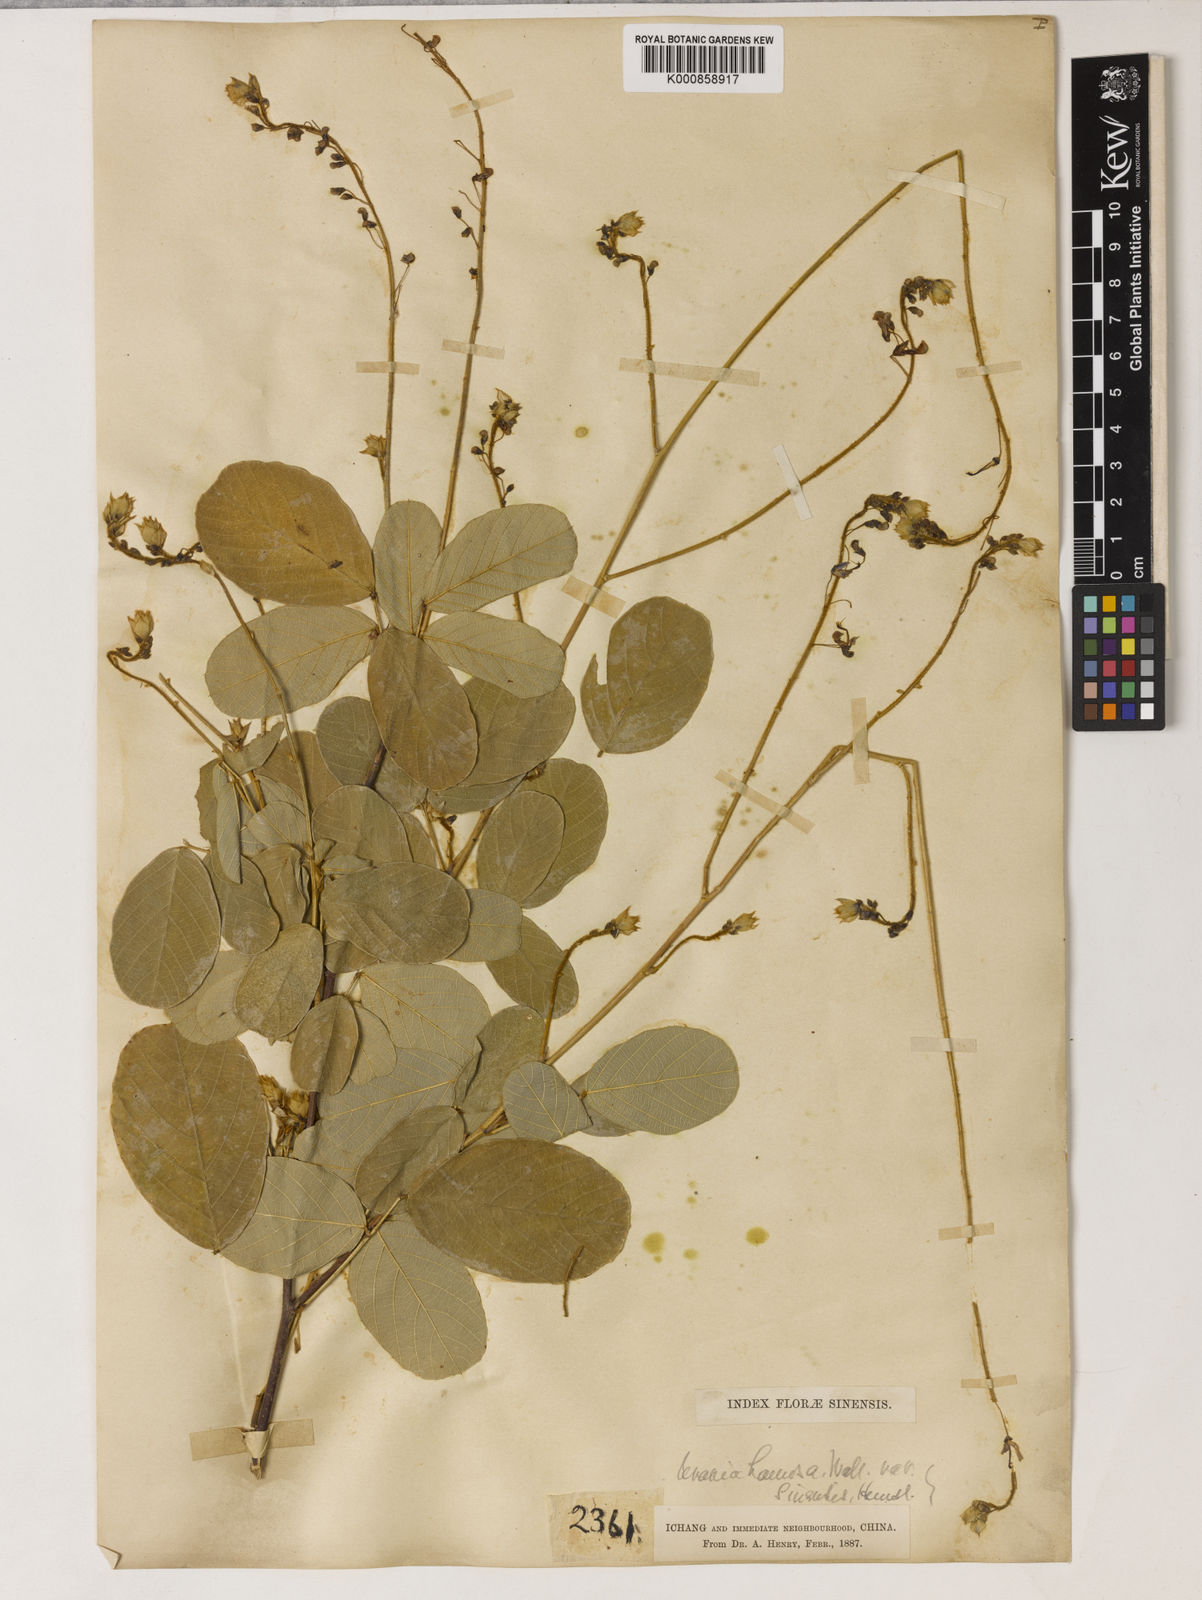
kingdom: Plantae
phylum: Tracheophyta
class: Magnoliopsida
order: Fabales
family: Fabaceae
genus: Uraria
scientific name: Uraria rufescens
